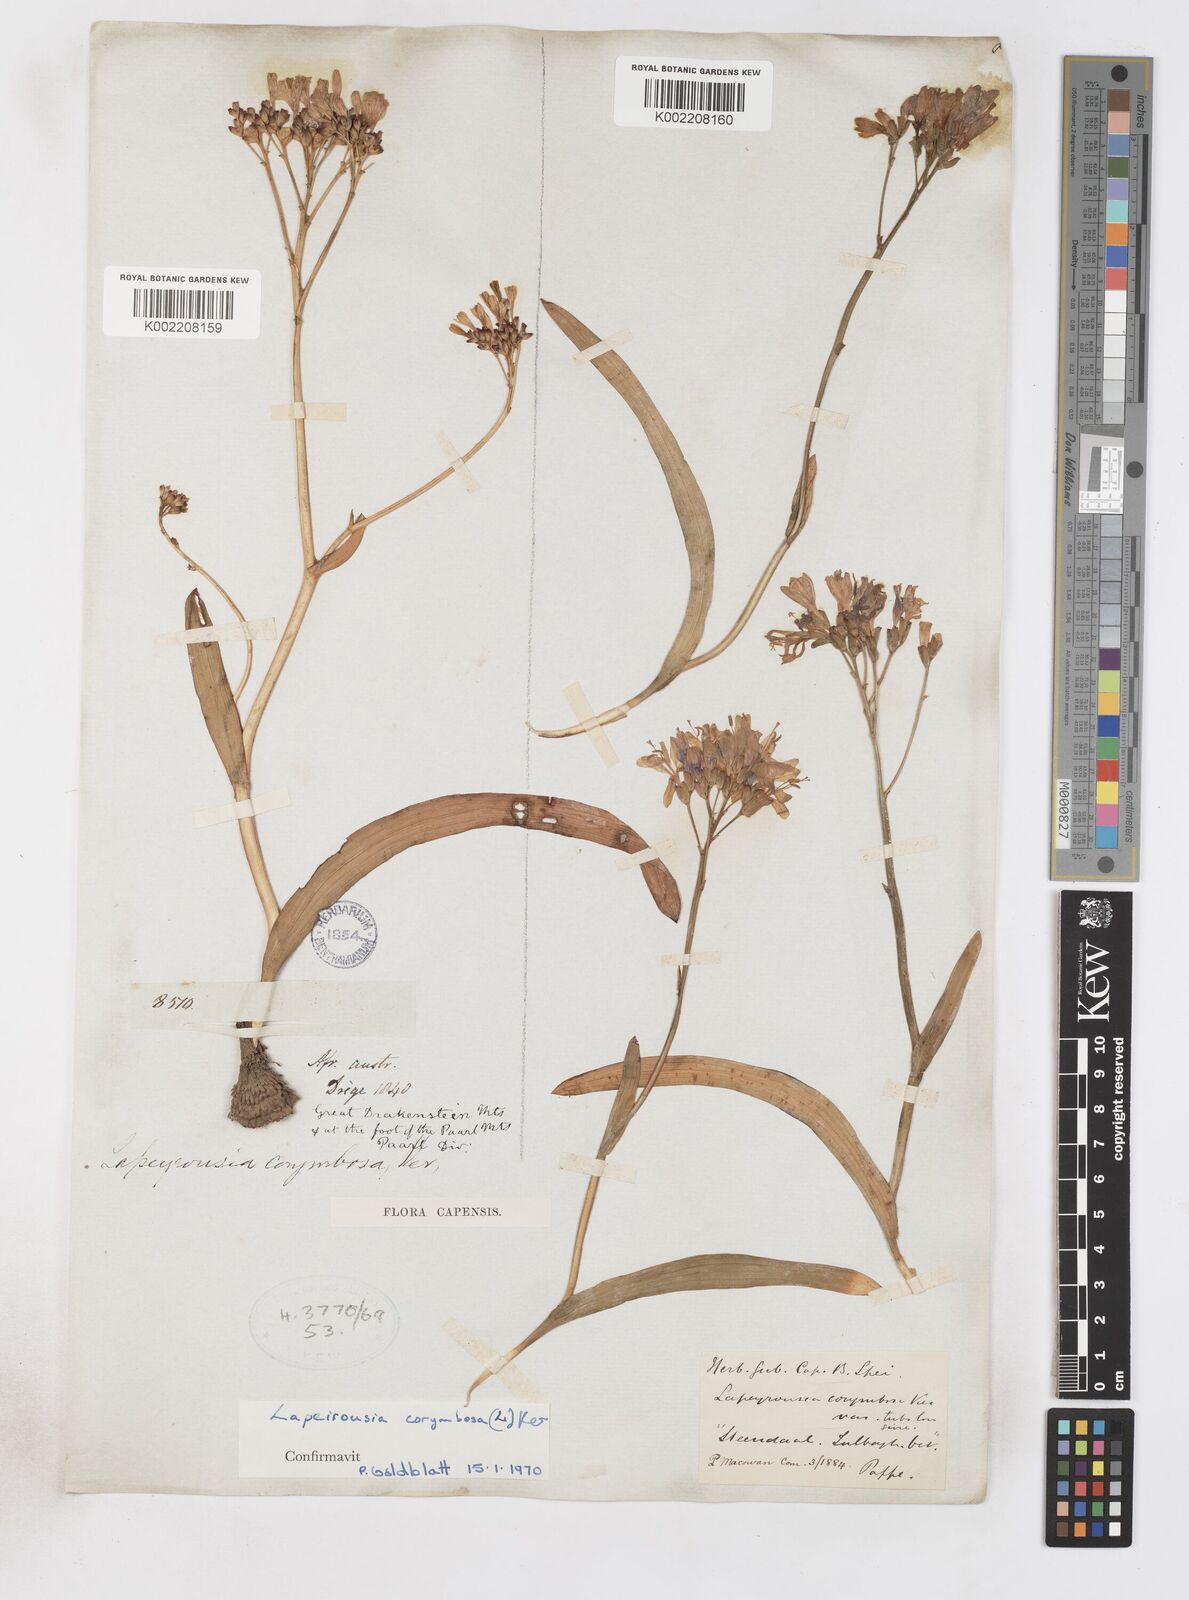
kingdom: Plantae
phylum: Tracheophyta
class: Liliopsida
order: Asparagales
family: Iridaceae
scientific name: Iridaceae
